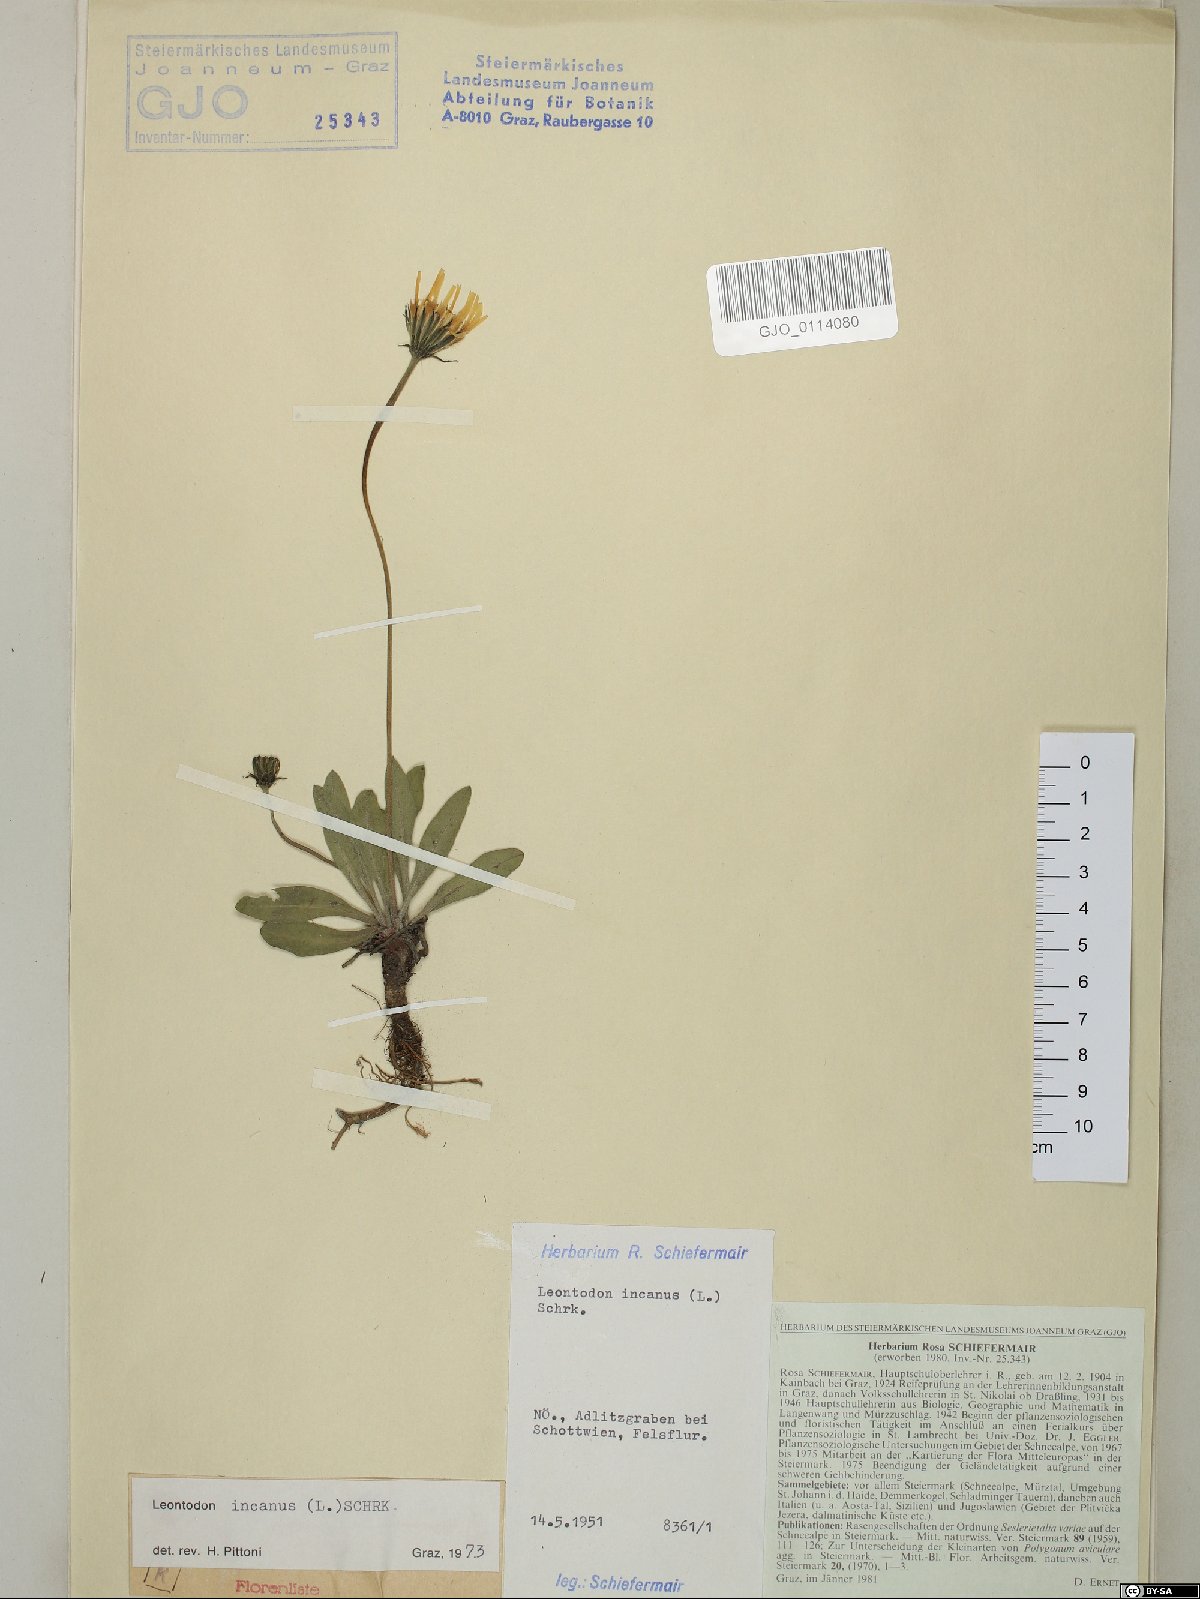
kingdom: Plantae
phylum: Tracheophyta
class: Magnoliopsida
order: Asterales
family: Asteraceae
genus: Leontodon
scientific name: Leontodon incanus
